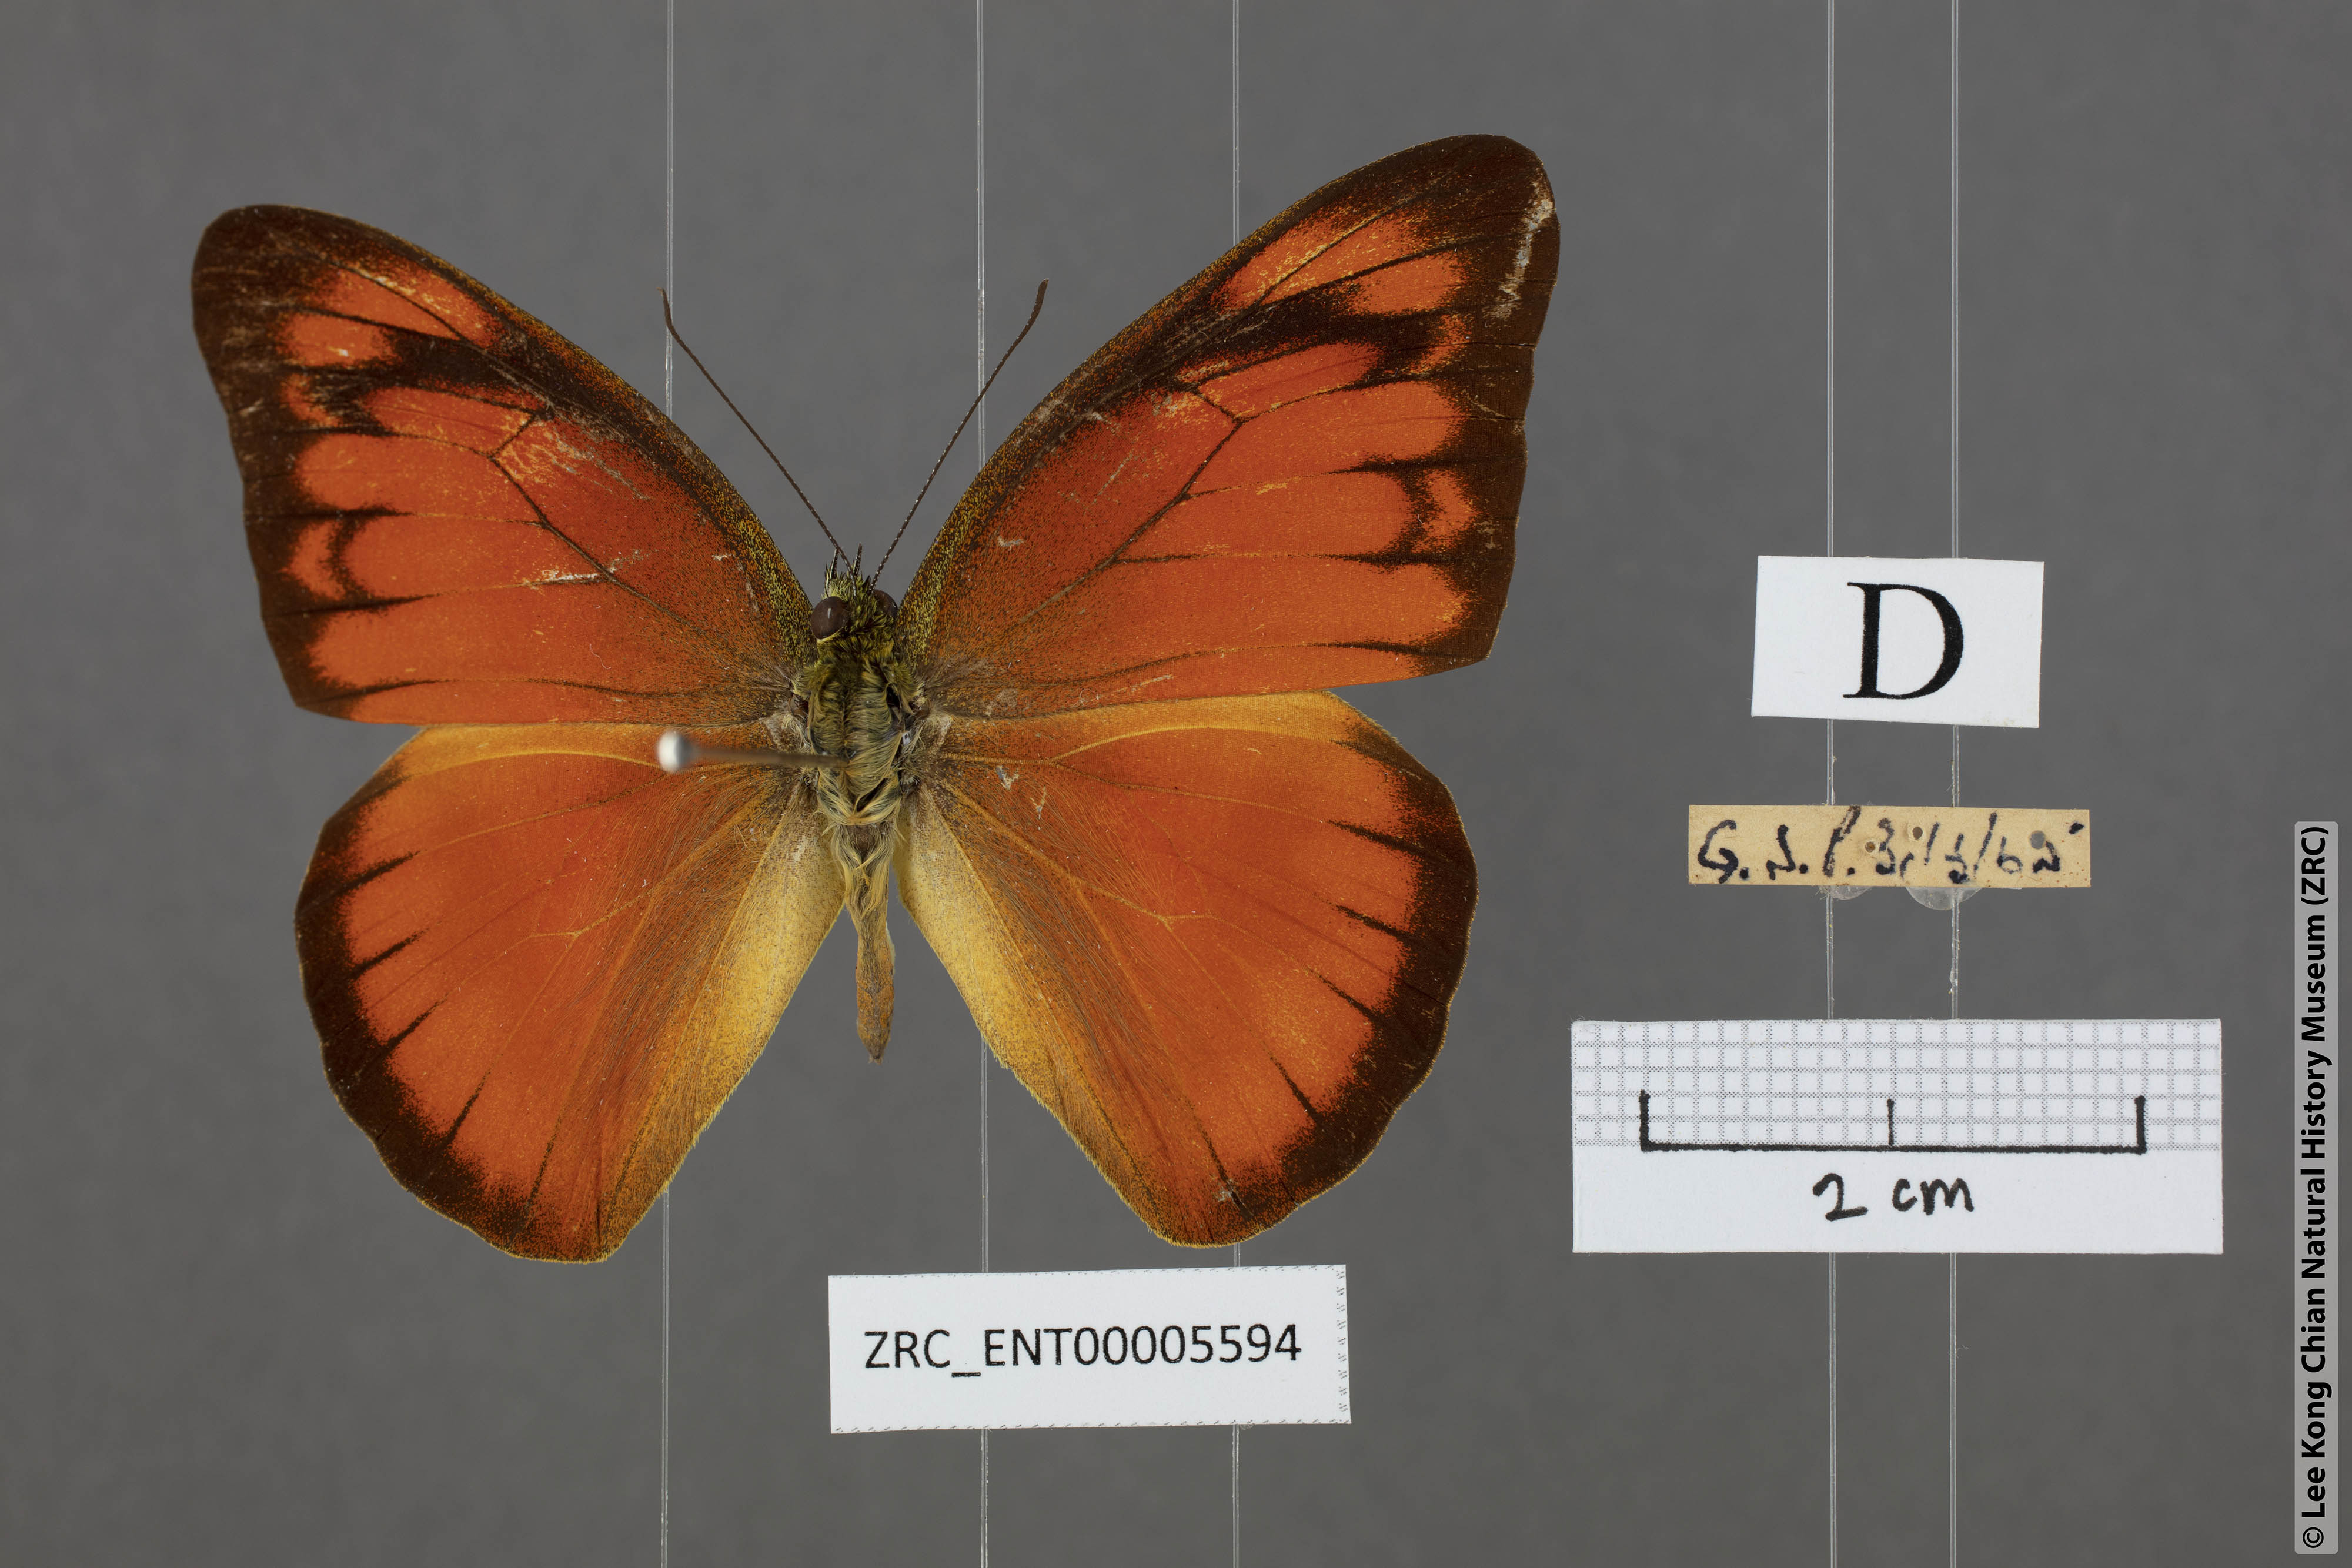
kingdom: Animalia
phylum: Arthropoda
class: Insecta
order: Lepidoptera
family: Pieridae
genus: Appias
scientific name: Appias nero
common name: Orange albatross
